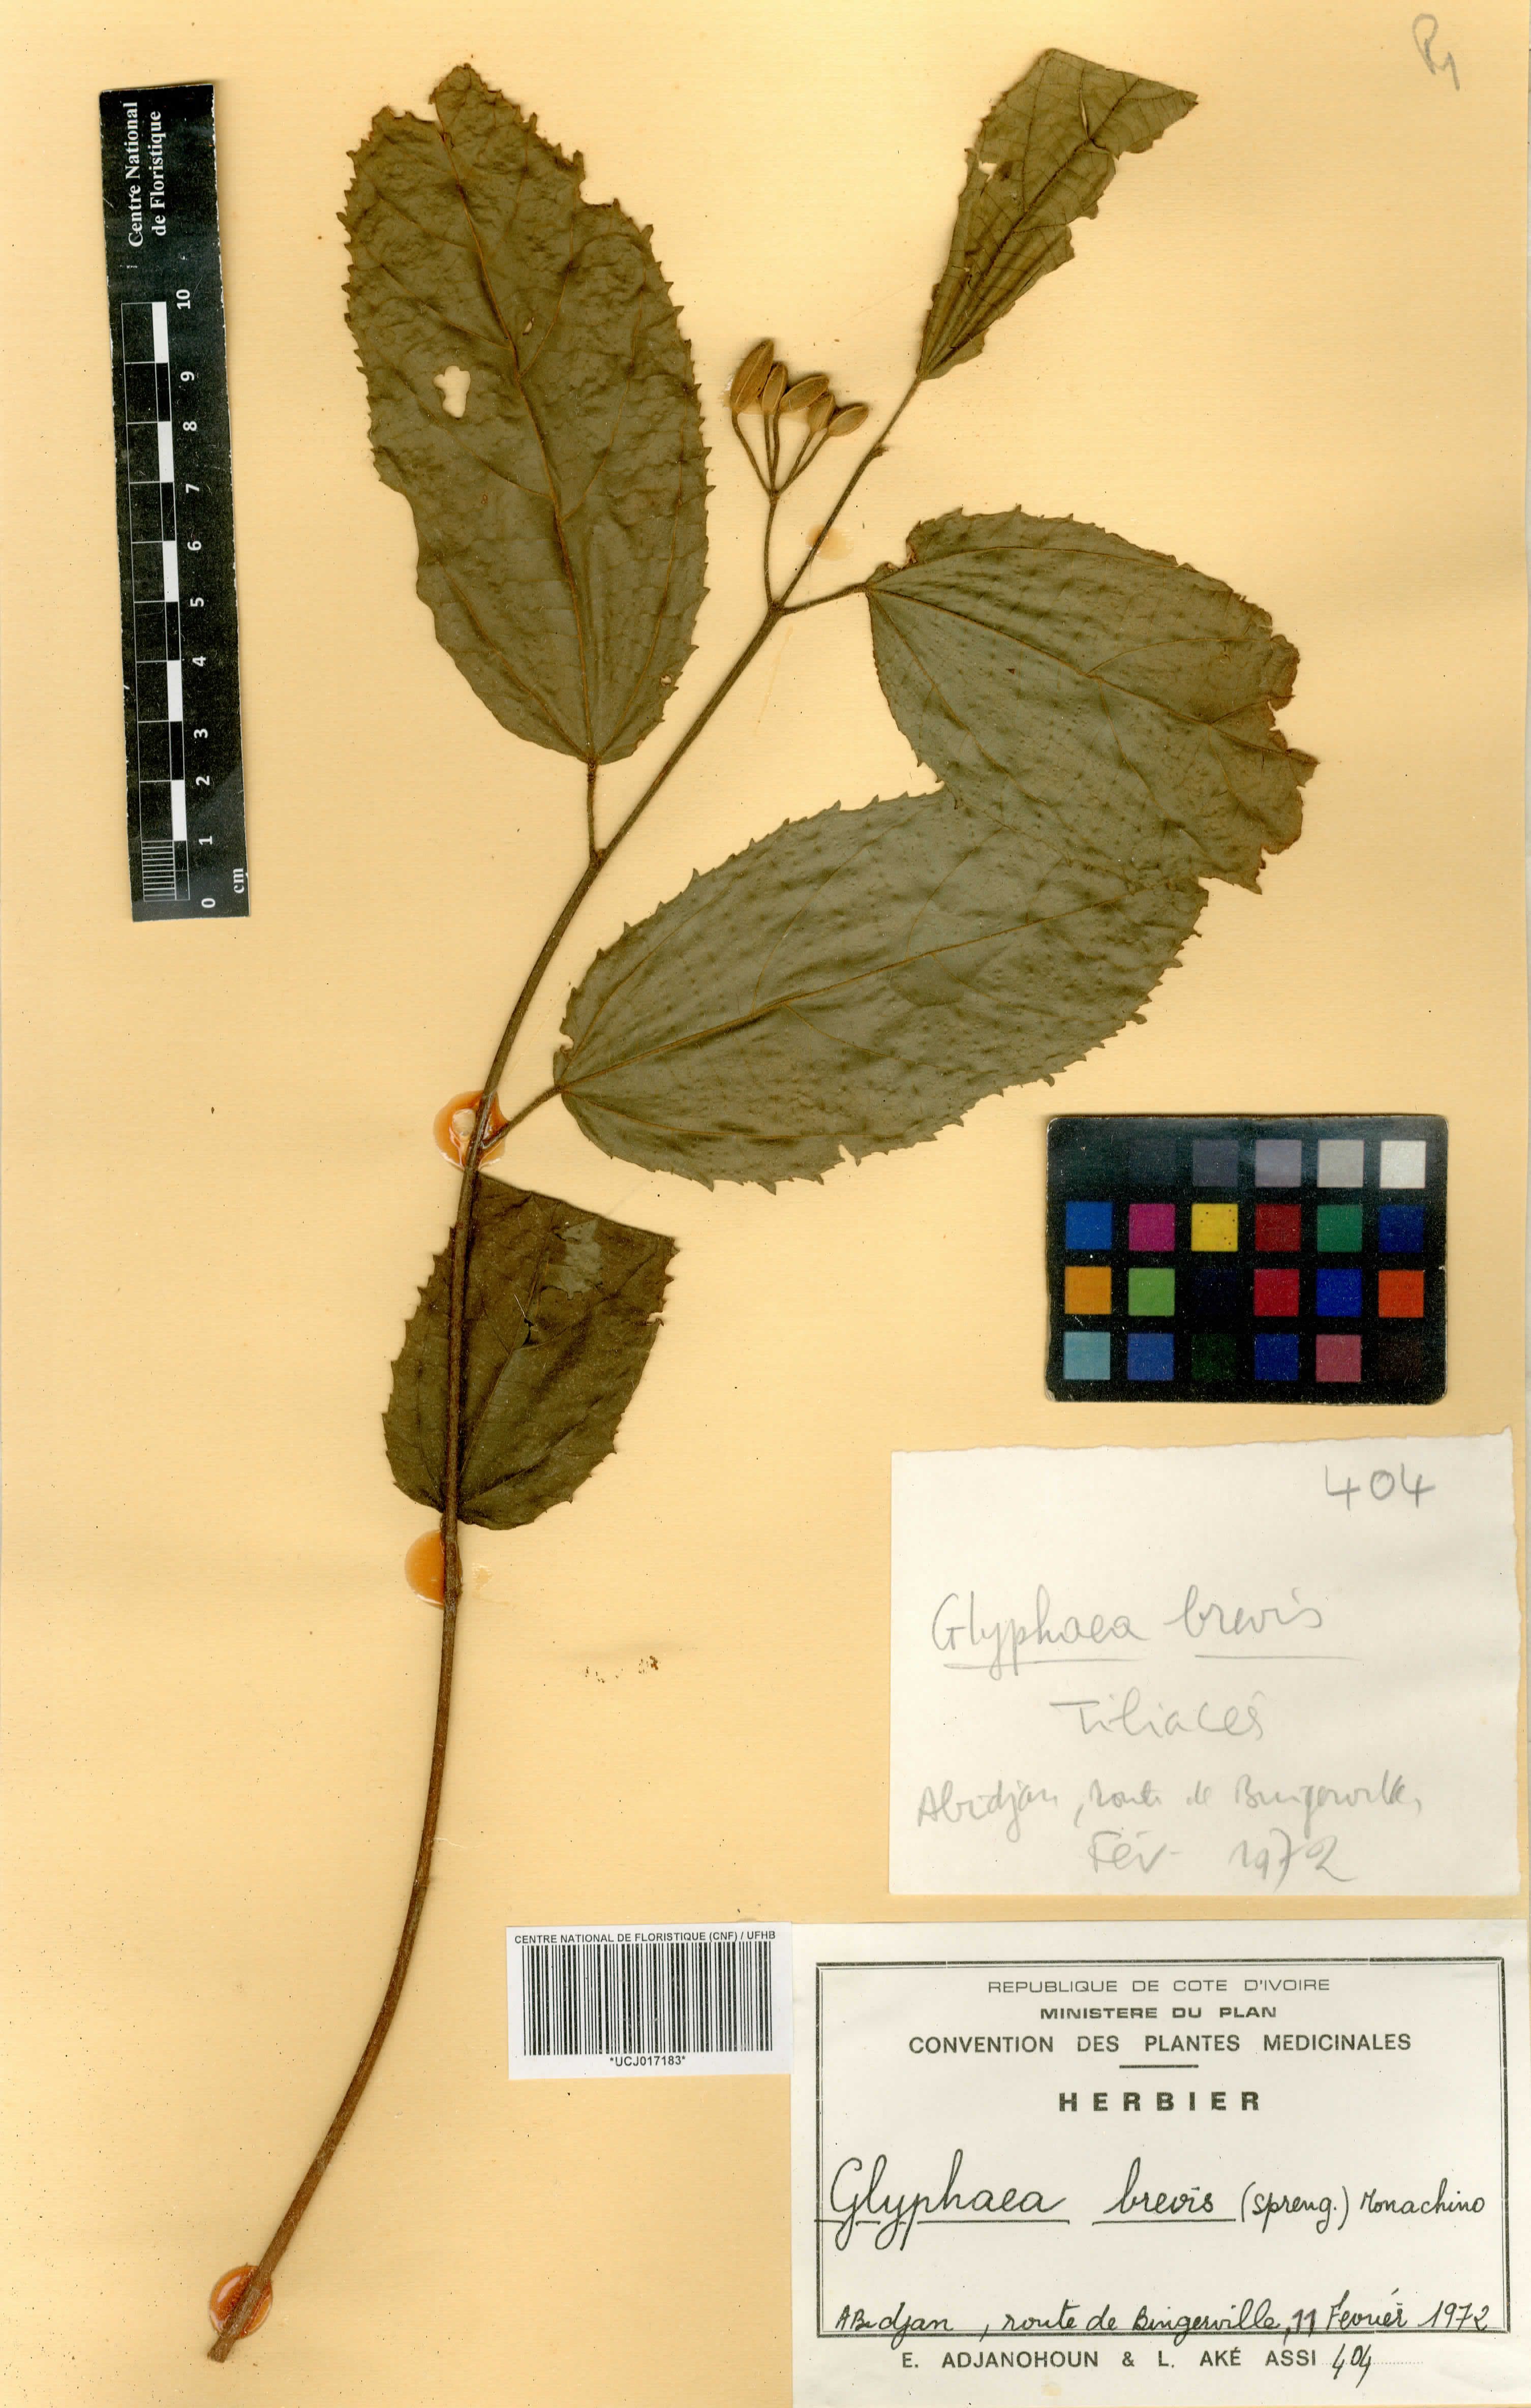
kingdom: Plantae
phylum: Tracheophyta
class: Magnoliopsida
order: Malvales
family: Malvaceae
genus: Glyphaea
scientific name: Glyphaea brevis
